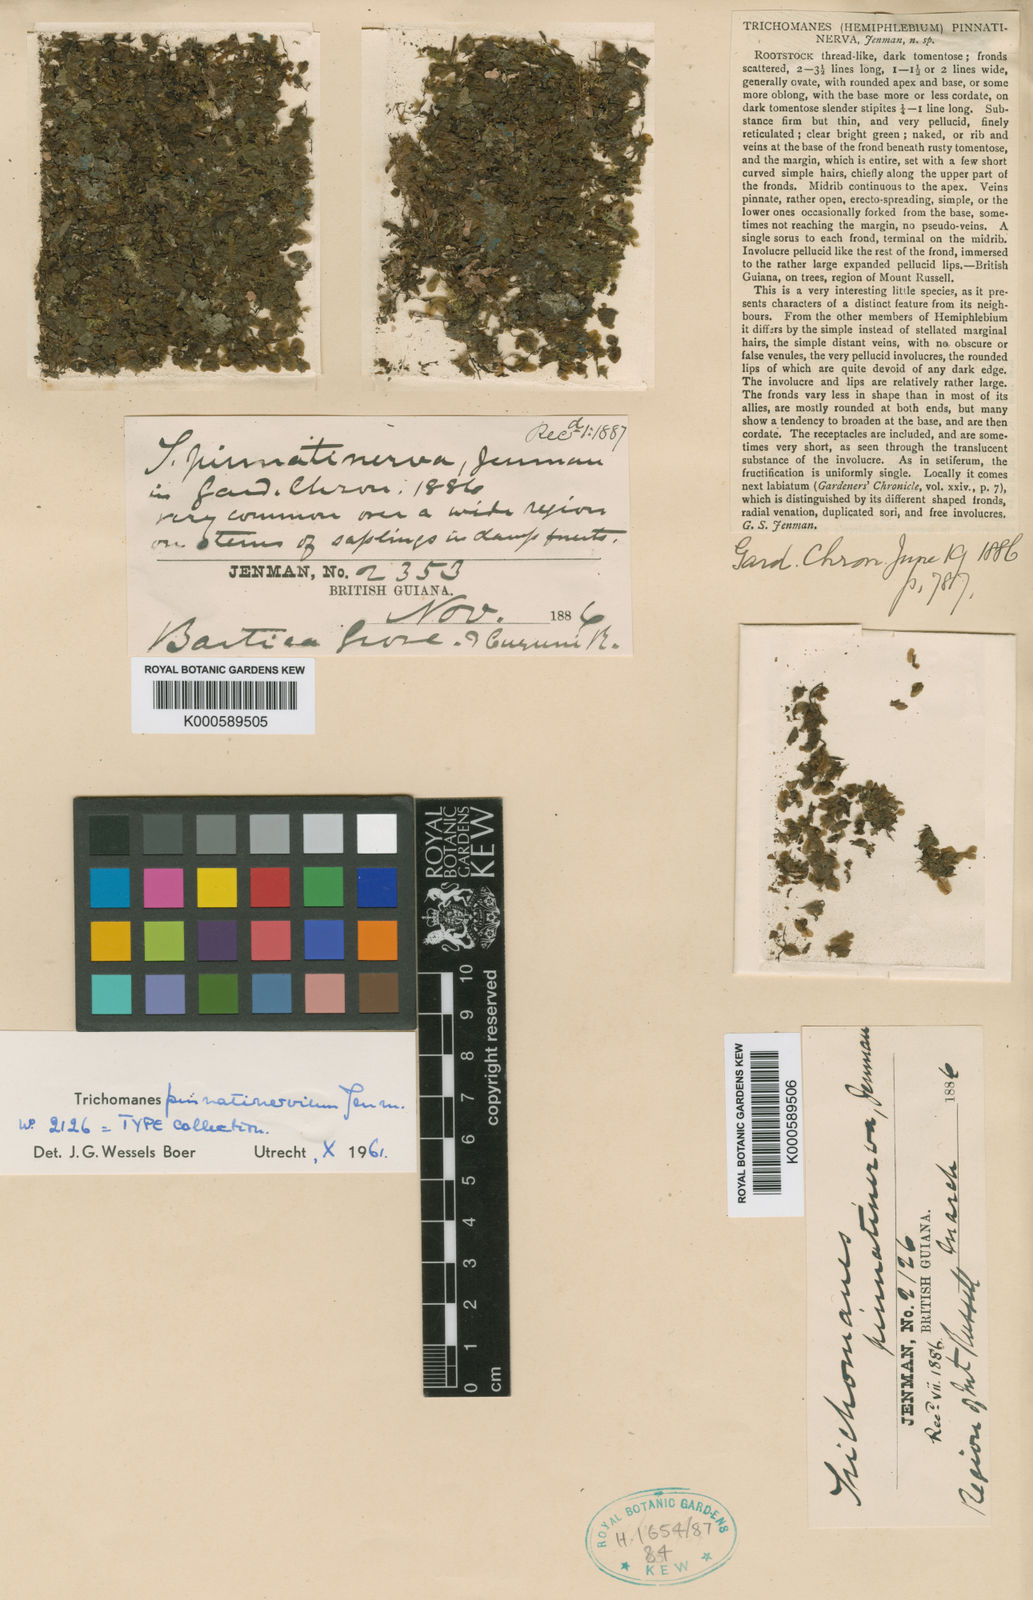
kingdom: Plantae
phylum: Tracheophyta
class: Polypodiopsida
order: Hymenophyllales
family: Hymenophyllaceae
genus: Didymoglossum
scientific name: Didymoglossum pinnatinervium
